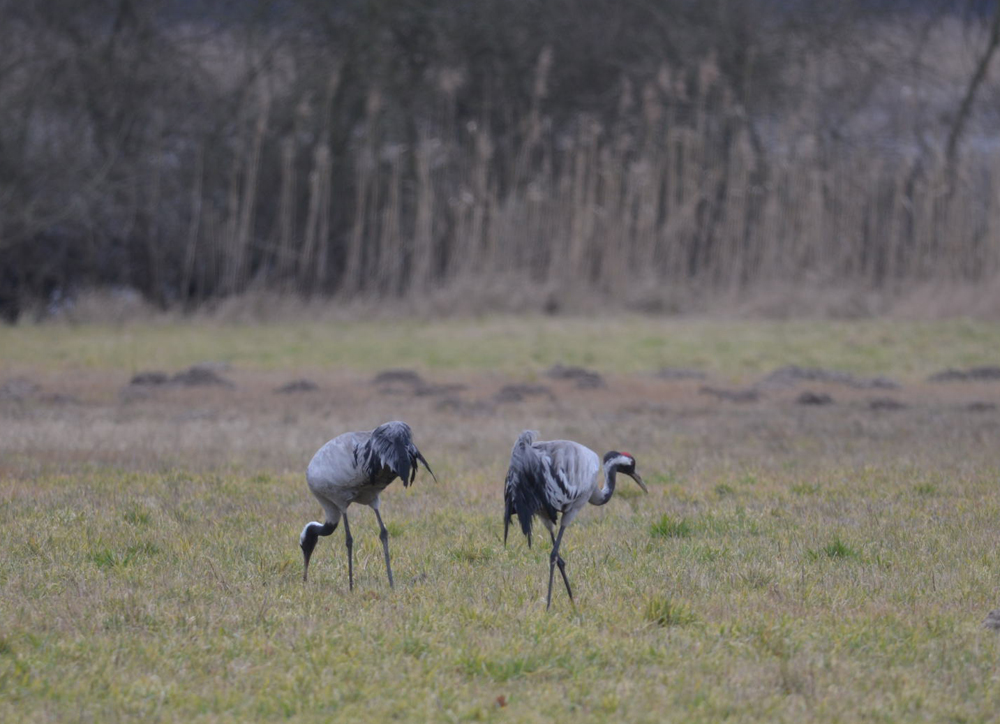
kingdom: Animalia
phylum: Chordata
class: Aves
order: Gruiformes
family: Gruidae
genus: Grus
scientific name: Grus grus
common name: Common crane
